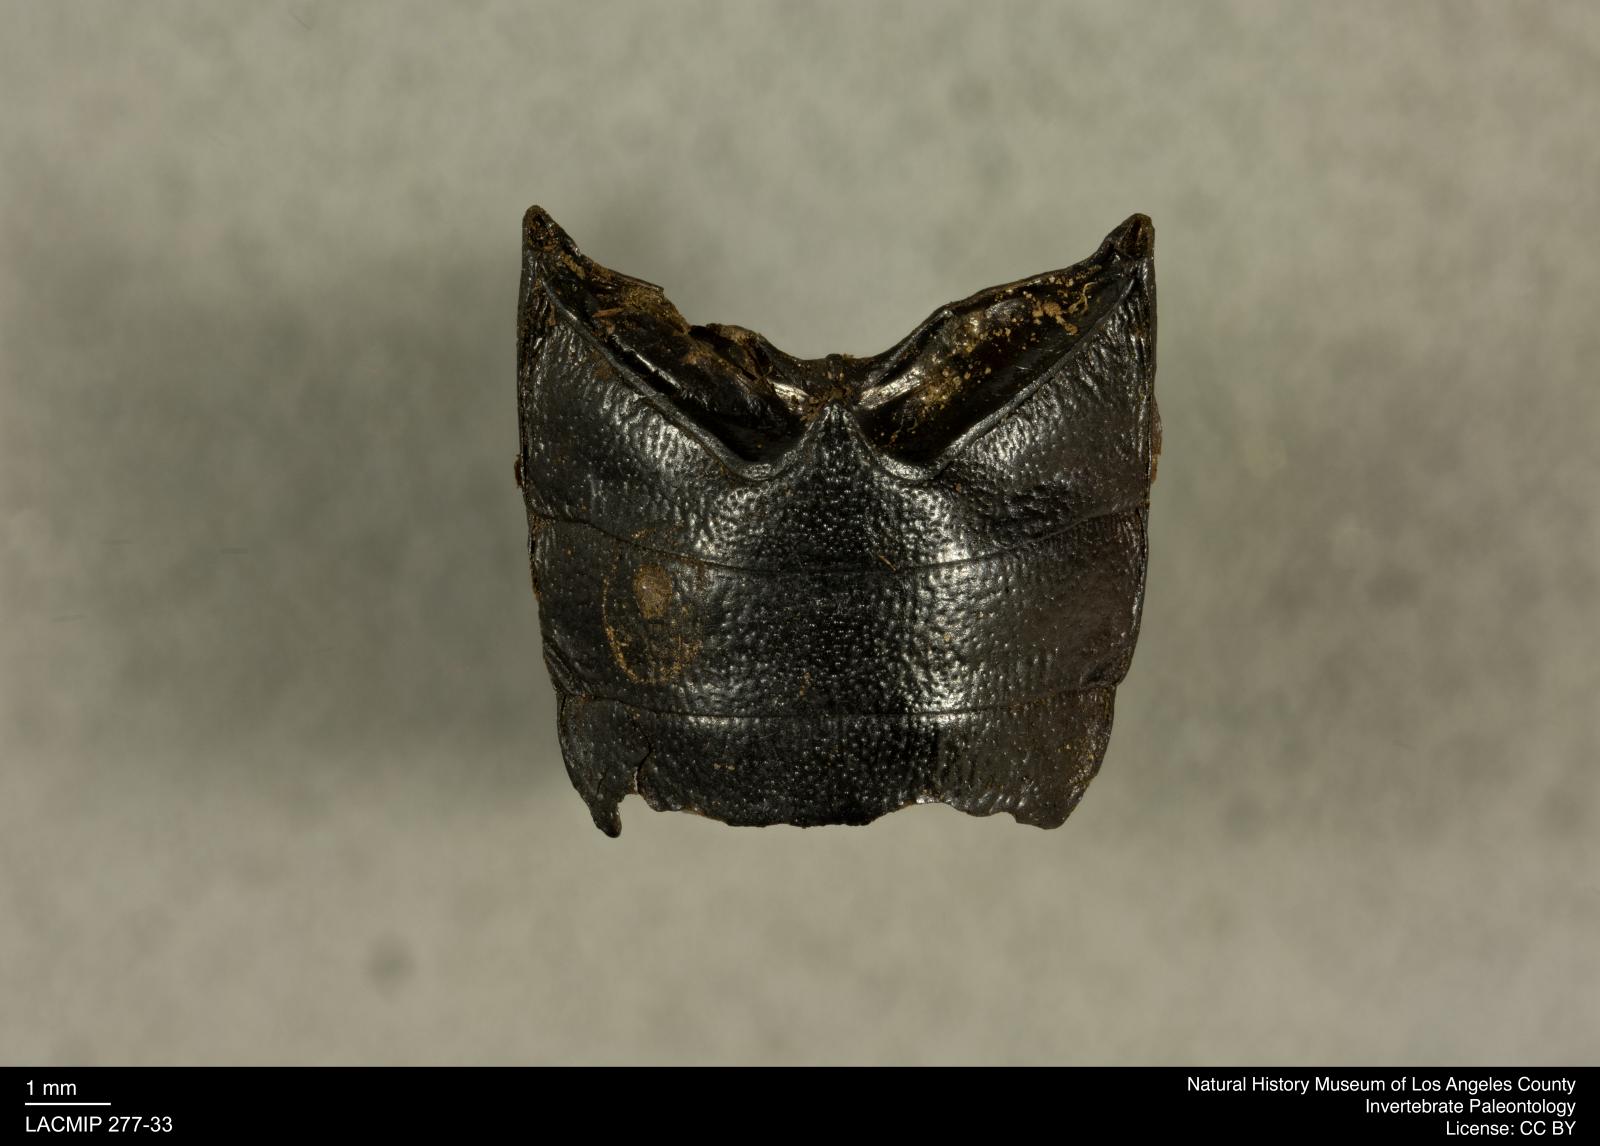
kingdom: Animalia
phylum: Arthropoda
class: Insecta
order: Coleoptera
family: Tenebrionidae
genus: Coniontis
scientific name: Coniontis abdominalis
